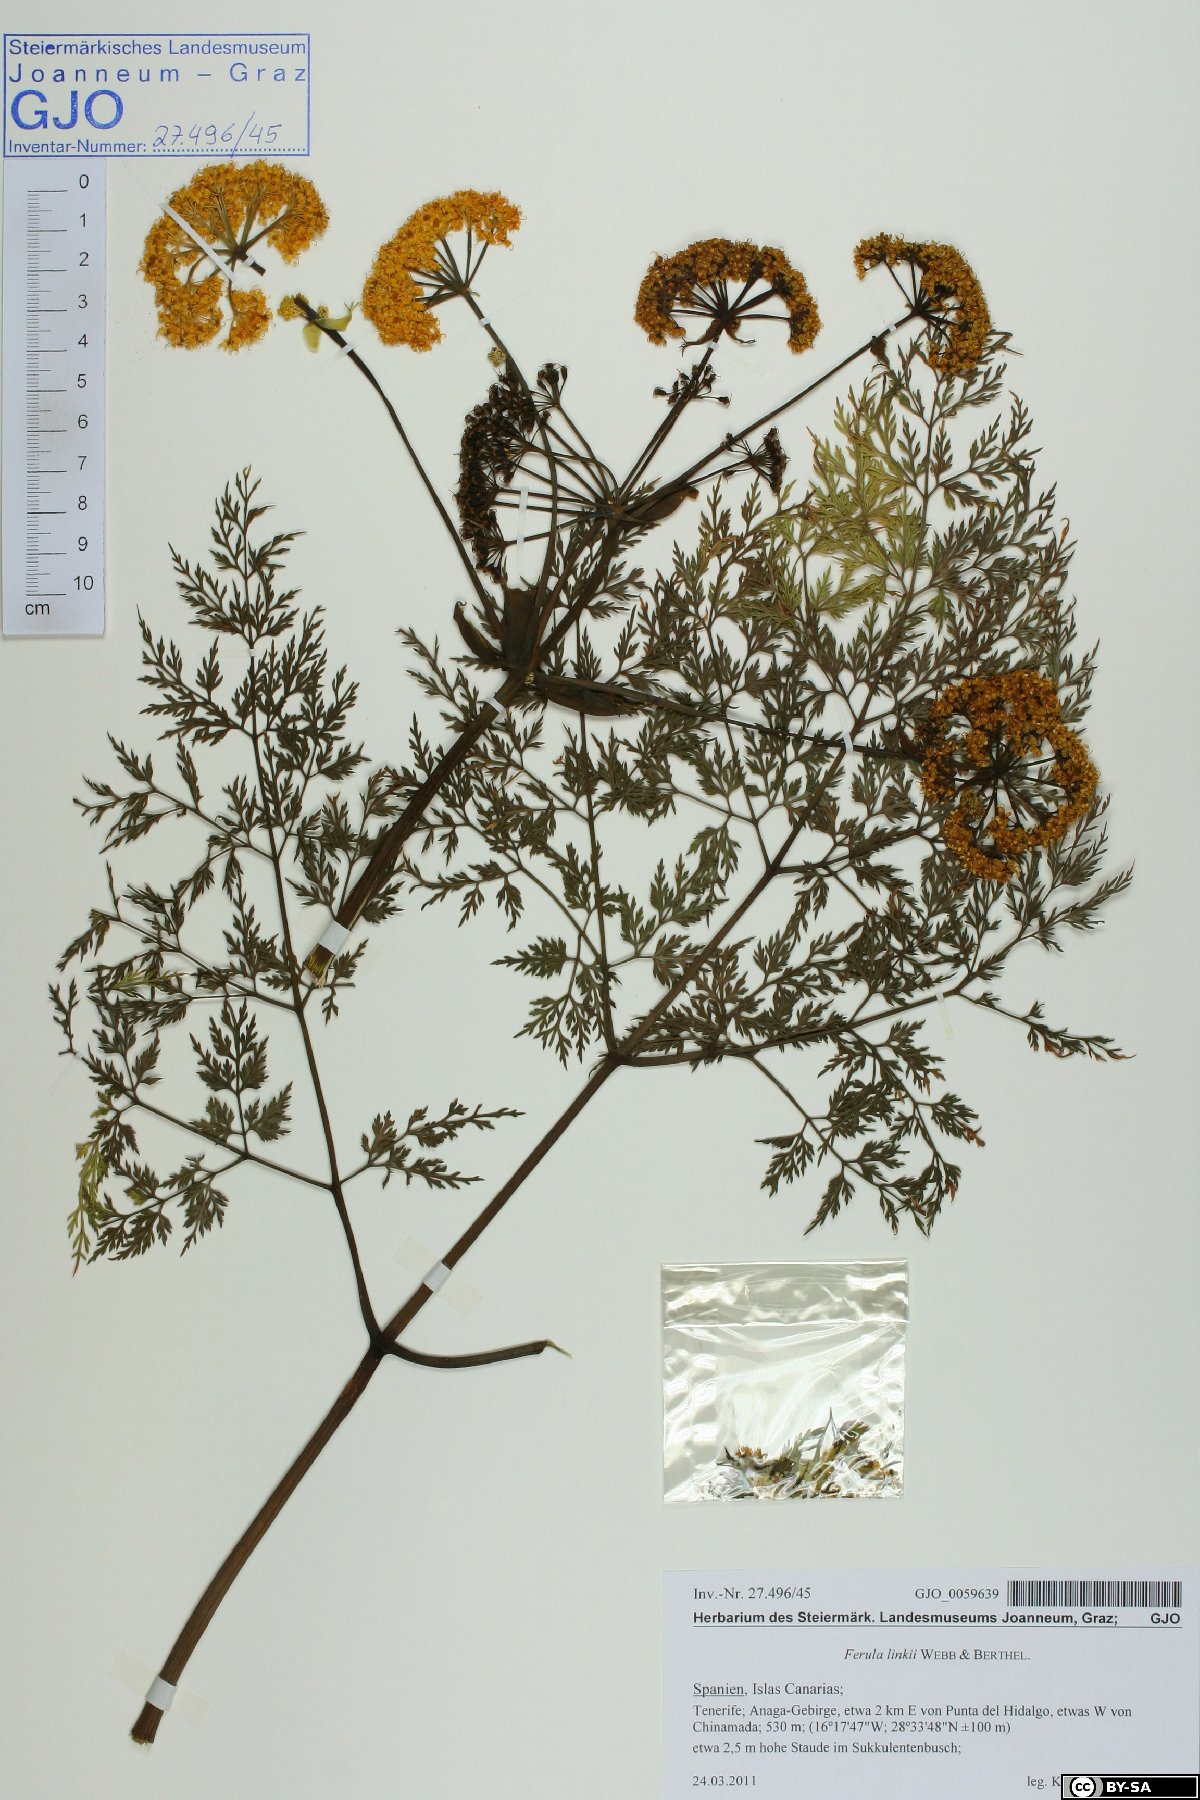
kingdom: Plantae
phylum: Tracheophyta
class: Magnoliopsida
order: Apiales
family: Apiaceae
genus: Ferula
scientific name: Ferula communis
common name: Giant fennel
